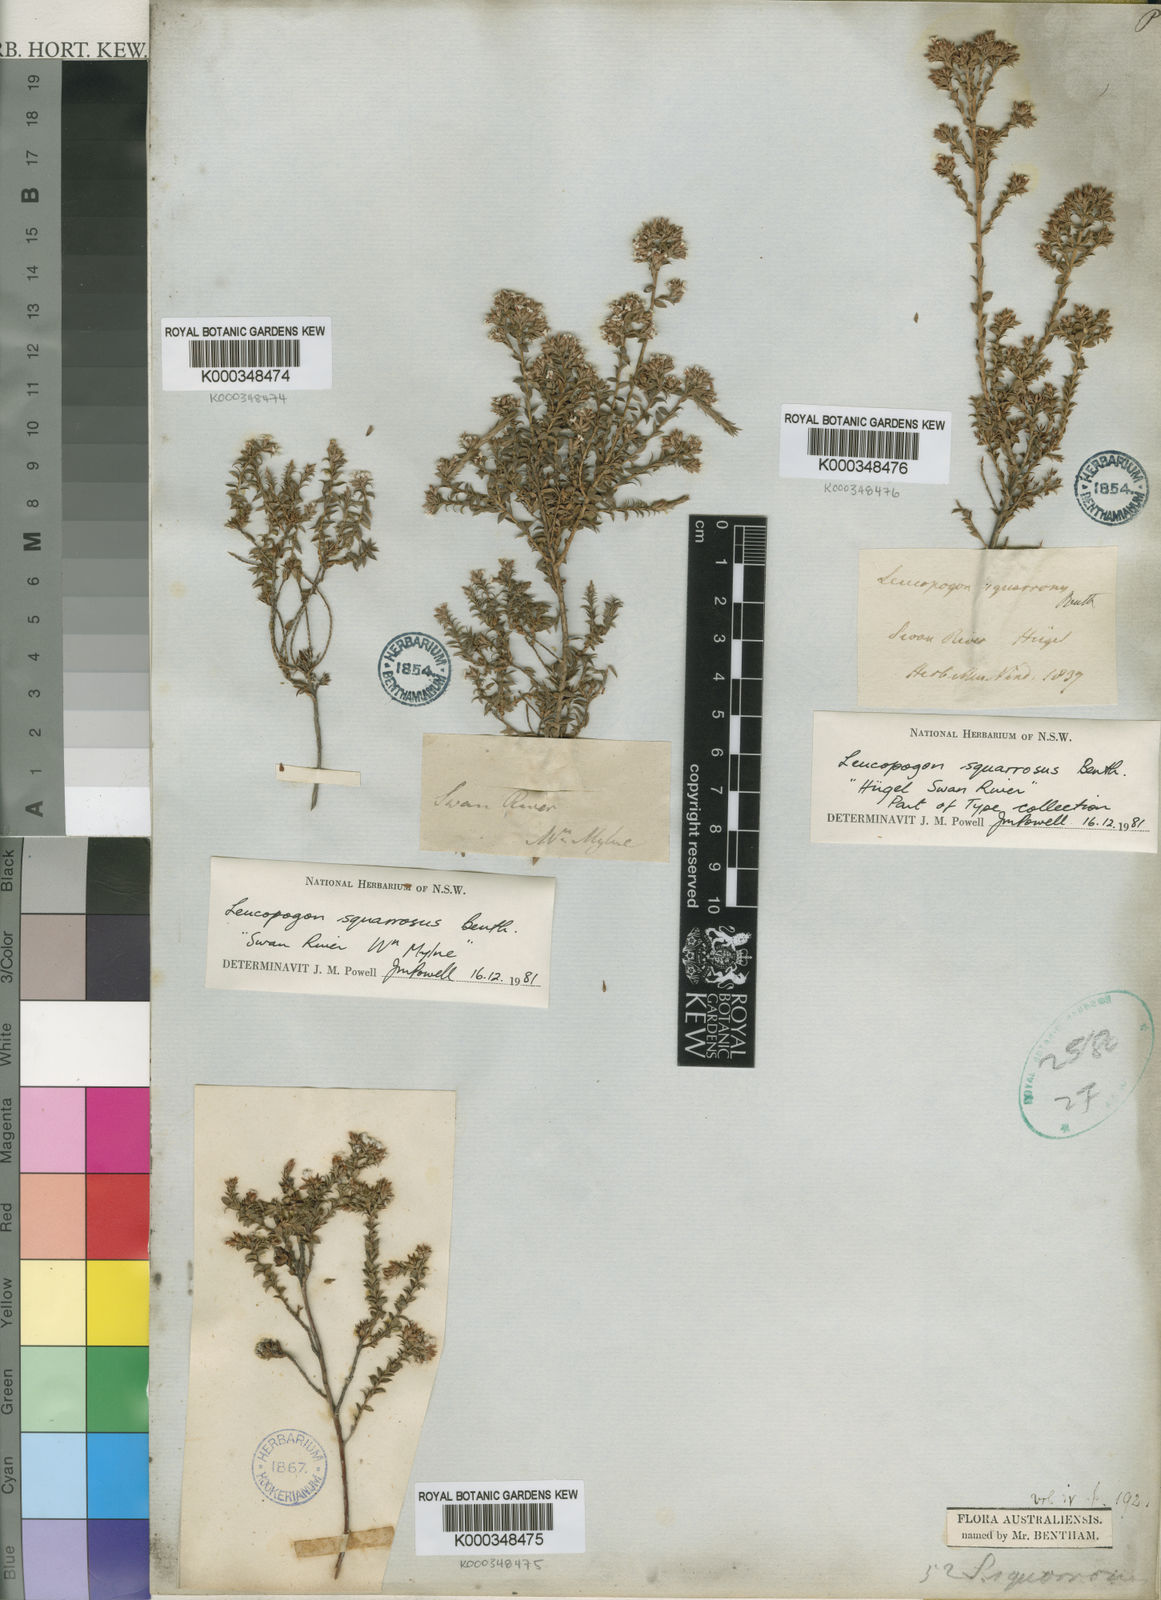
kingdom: Plantae
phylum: Tracheophyta
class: Magnoliopsida
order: Ericales
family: Ericaceae
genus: Leucopogon
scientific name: Leucopogon squarrosus
